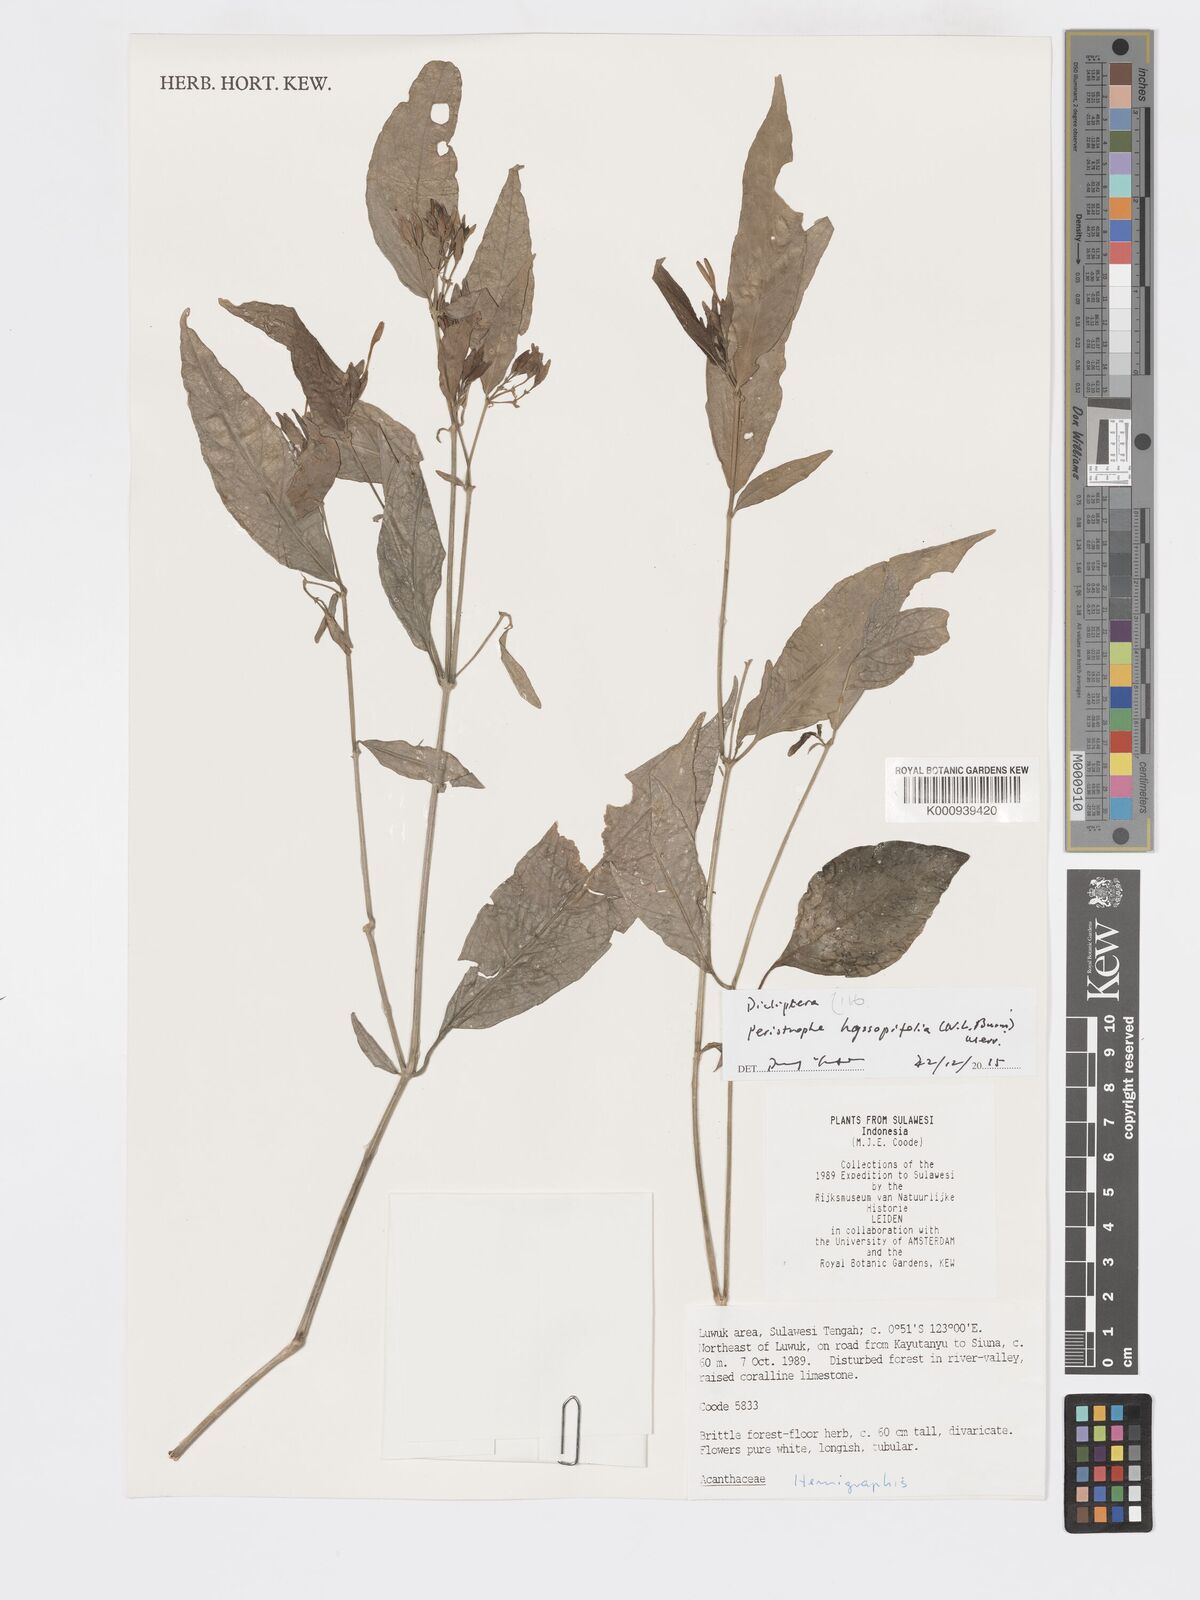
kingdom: Plantae
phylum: Tracheophyta
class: Magnoliopsida
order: Lamiales
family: Acanthaceae
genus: Dicliptera
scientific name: Dicliptera
